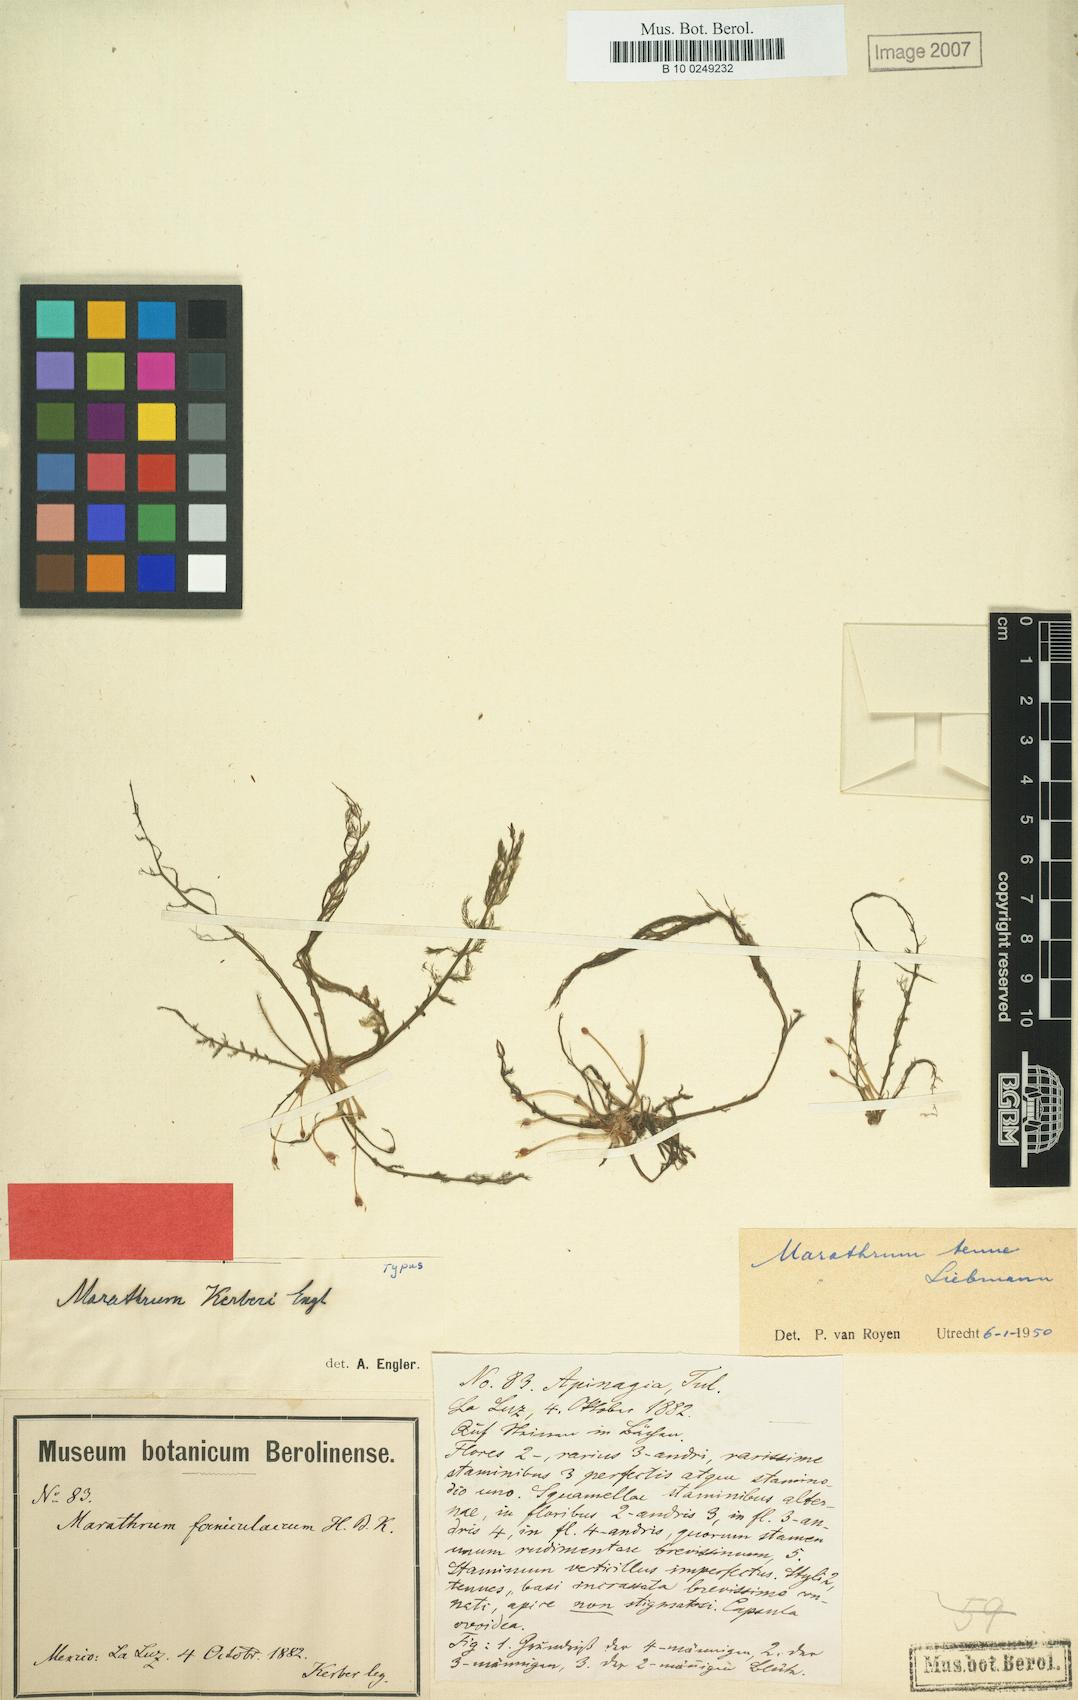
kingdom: Plantae
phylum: Tracheophyta
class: Magnoliopsida
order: Malpighiales
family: Podostemaceae
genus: Marathrum
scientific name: Marathrum tenue
